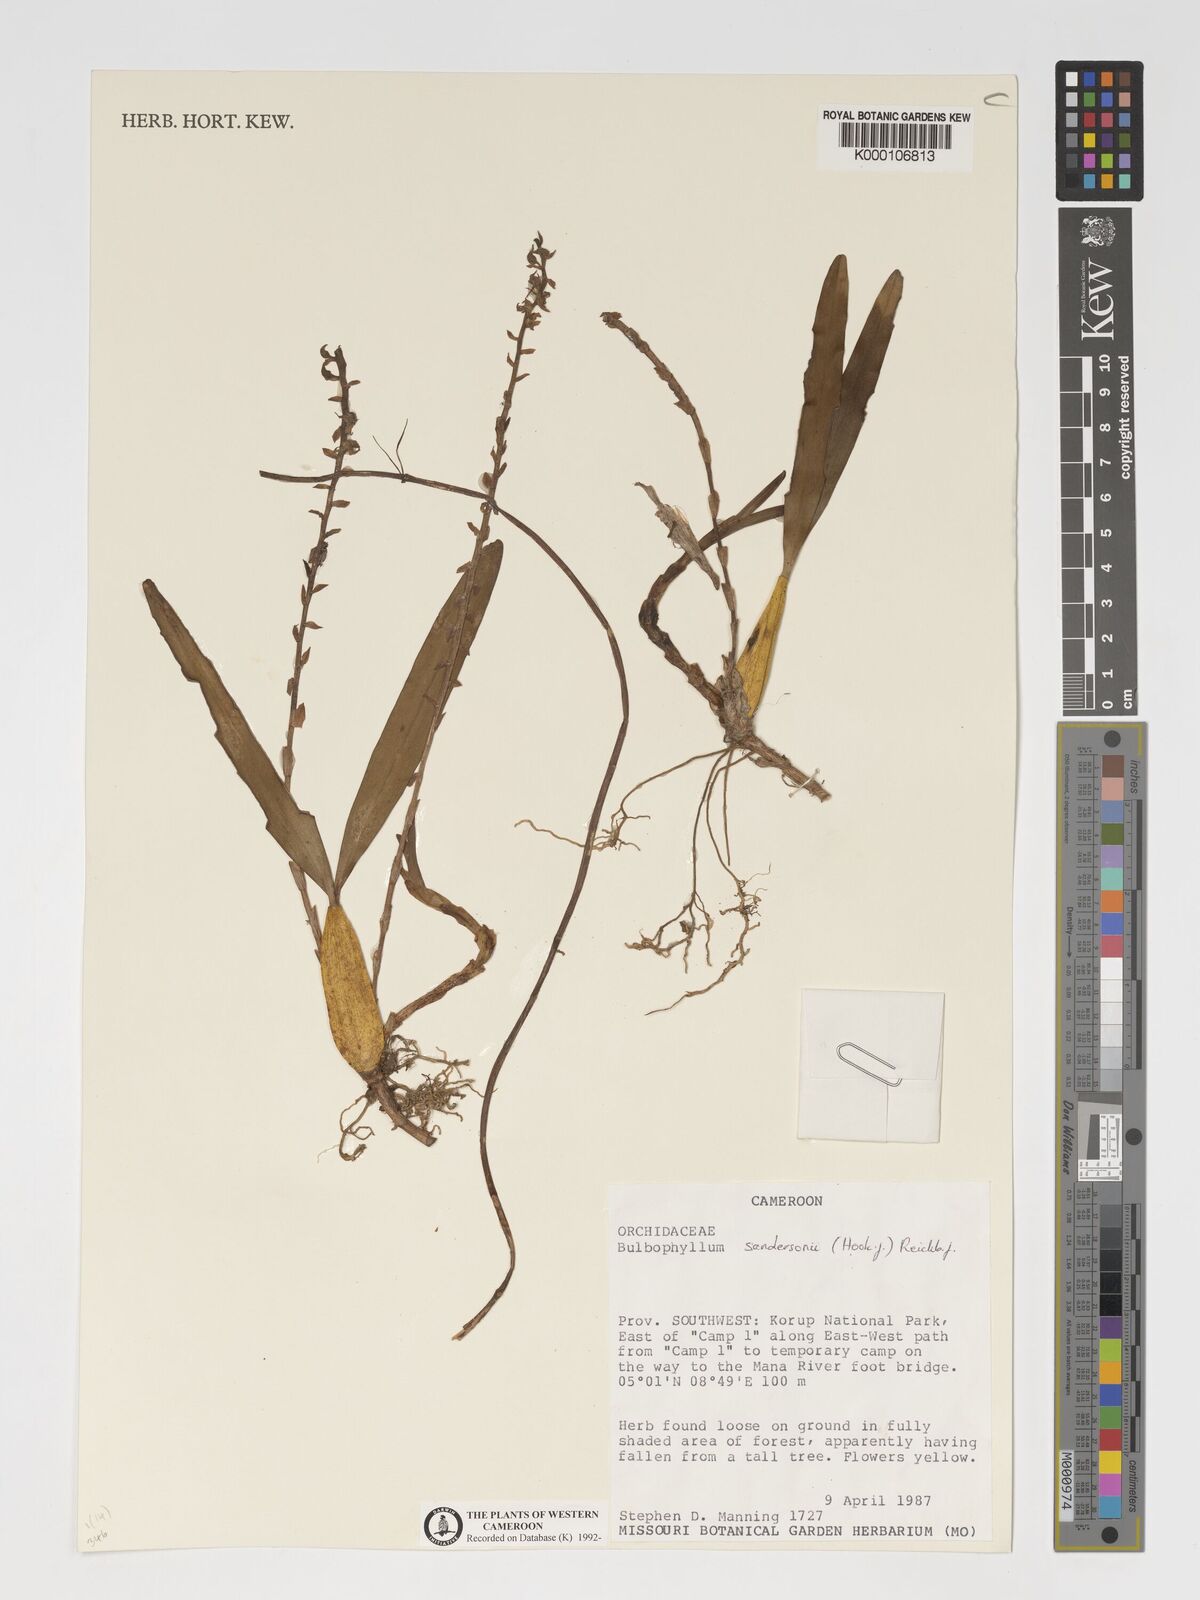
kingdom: Plantae
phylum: Tracheophyta
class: Liliopsida
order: Asparagales
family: Orchidaceae
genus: Bulbophyllum
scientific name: Bulbophyllum sandersonii
